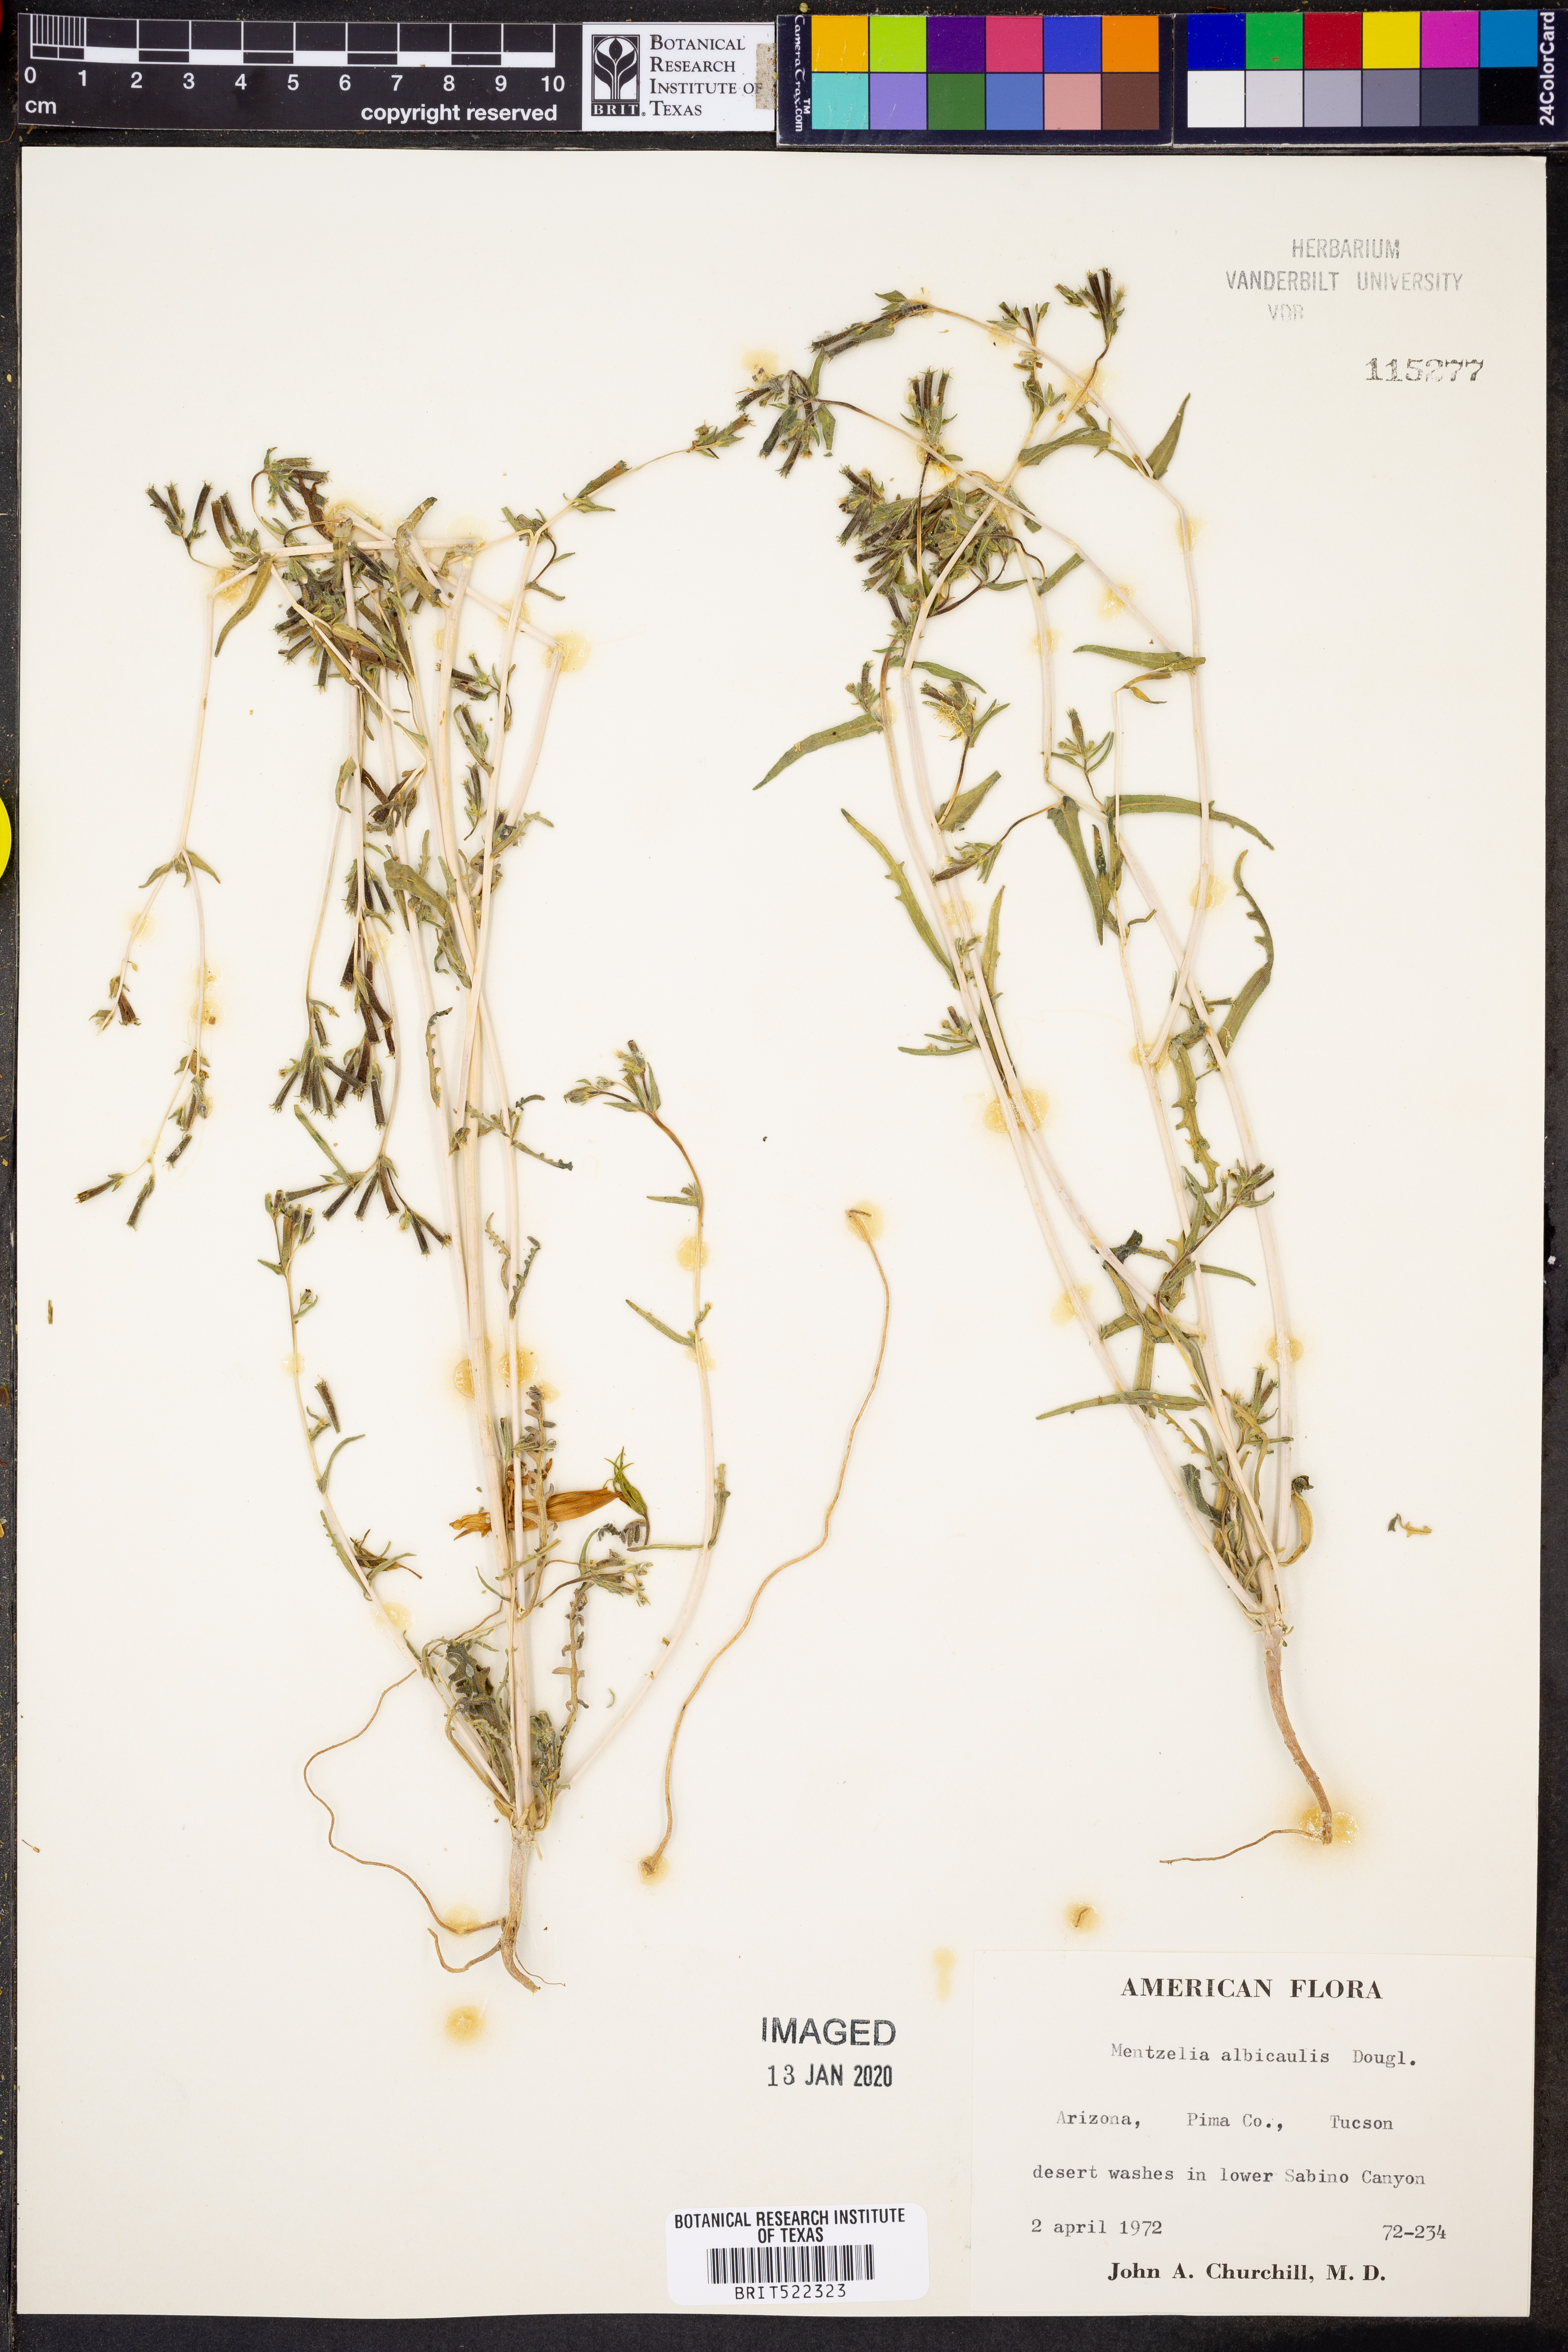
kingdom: Plantae
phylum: Tracheophyta
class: Magnoliopsida
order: Cornales
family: Loasaceae
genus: Mentzelia
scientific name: Mentzelia albicaulis
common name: White-stem blazingstar
